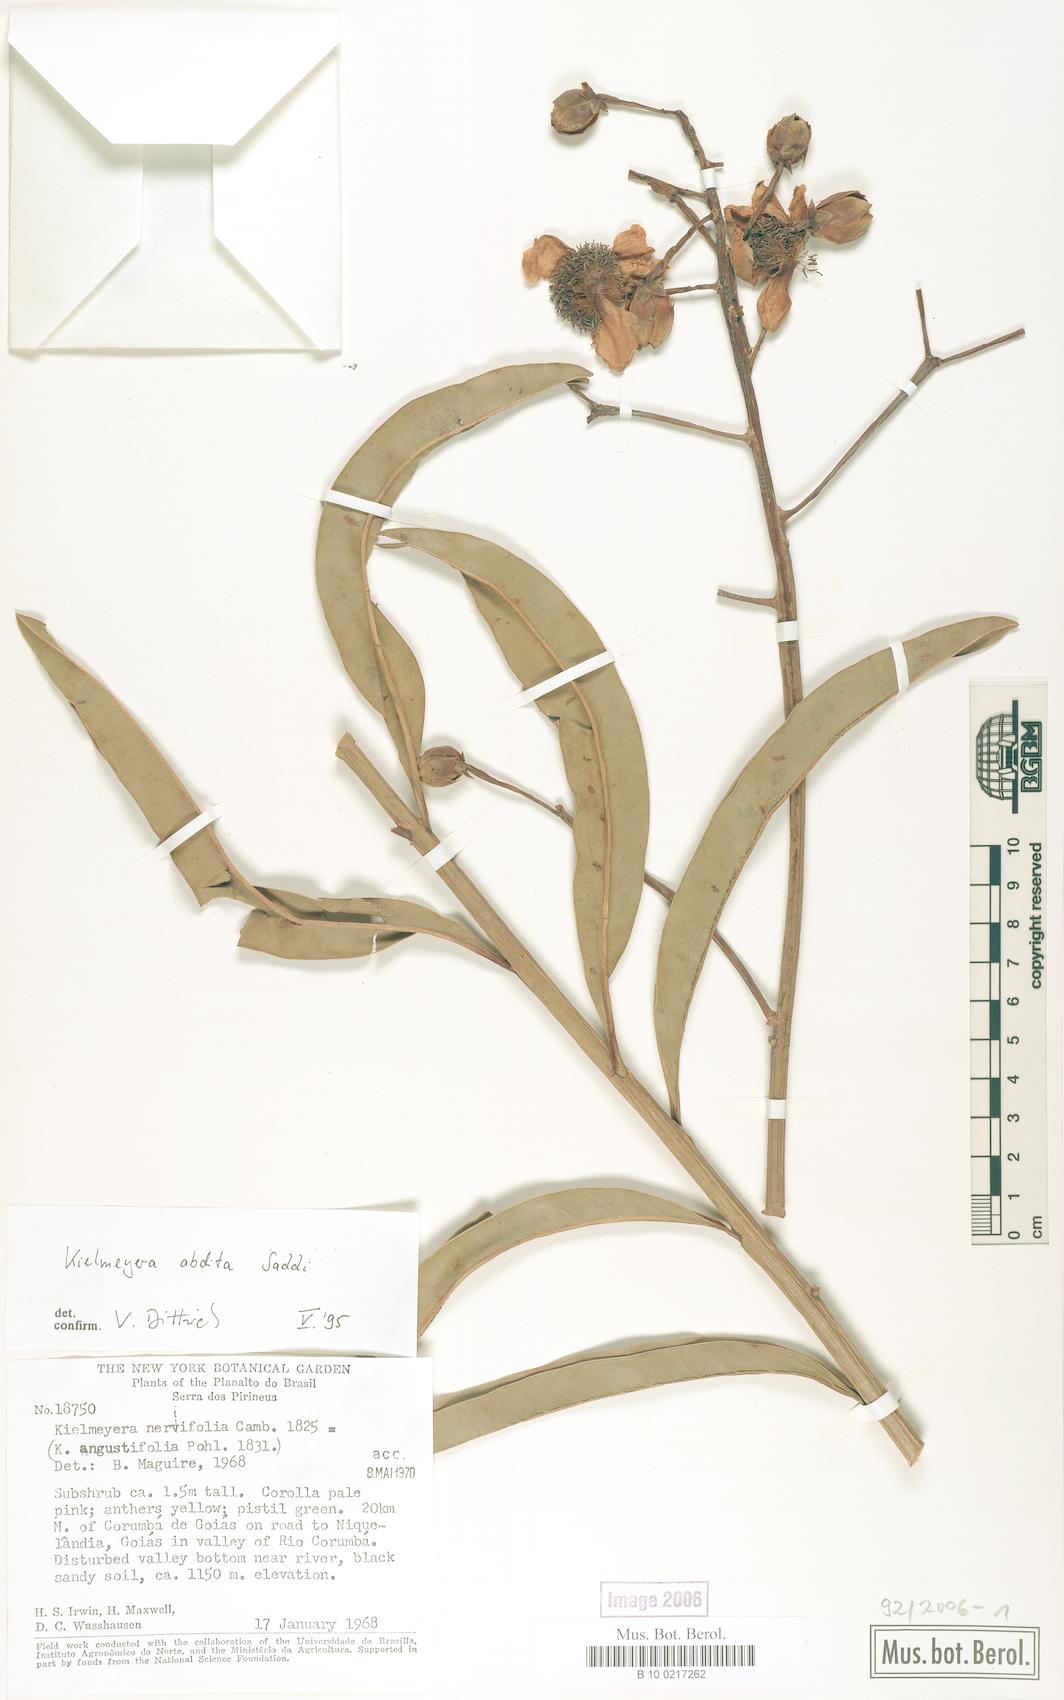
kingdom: Plantae
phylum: Tracheophyta
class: Magnoliopsida
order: Malpighiales
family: Calophyllaceae
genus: Kielmeyera
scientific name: Kielmeyera abdita
